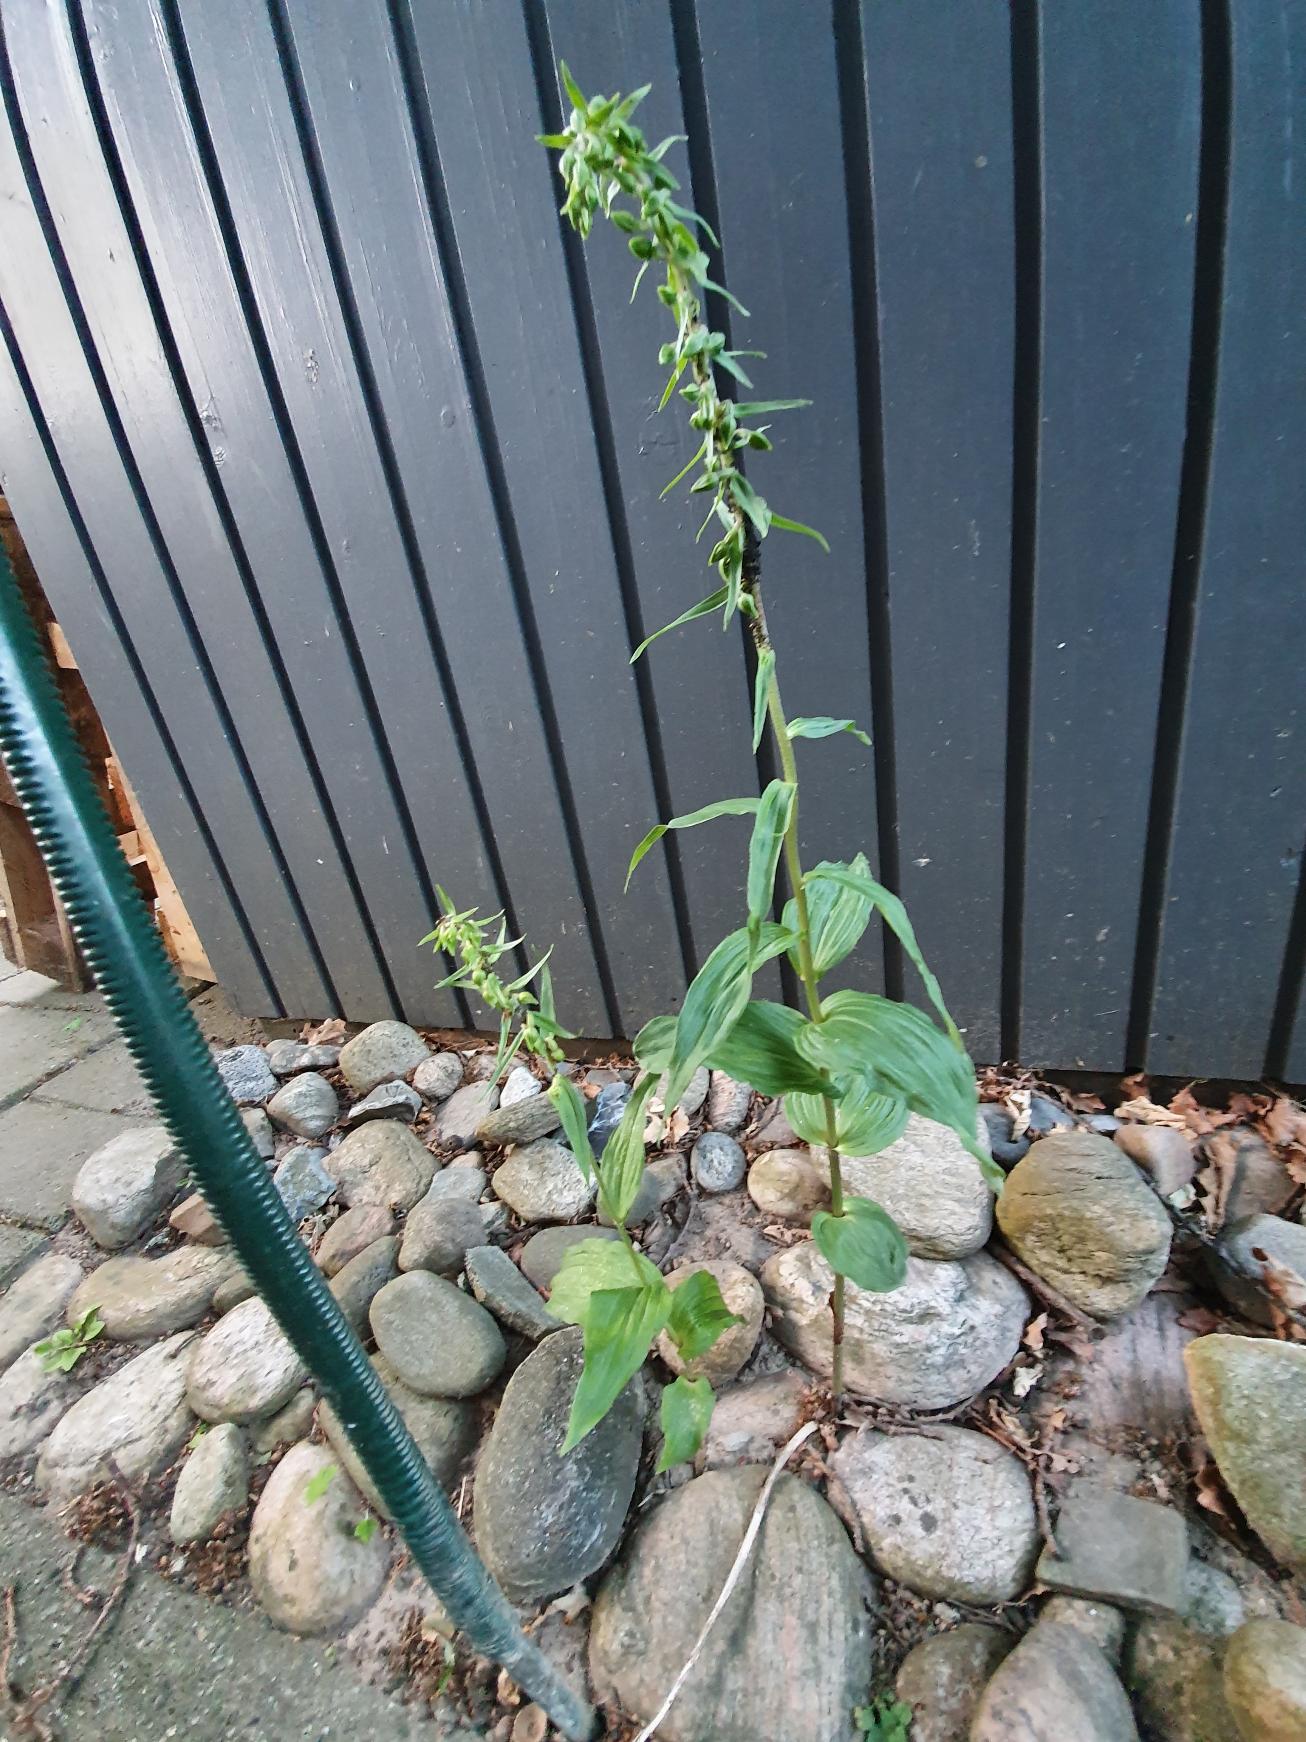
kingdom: Plantae
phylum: Tracheophyta
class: Liliopsida
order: Asparagales
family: Orchidaceae
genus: Epipactis
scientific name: Epipactis helleborine
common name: Skov-hullæbe
